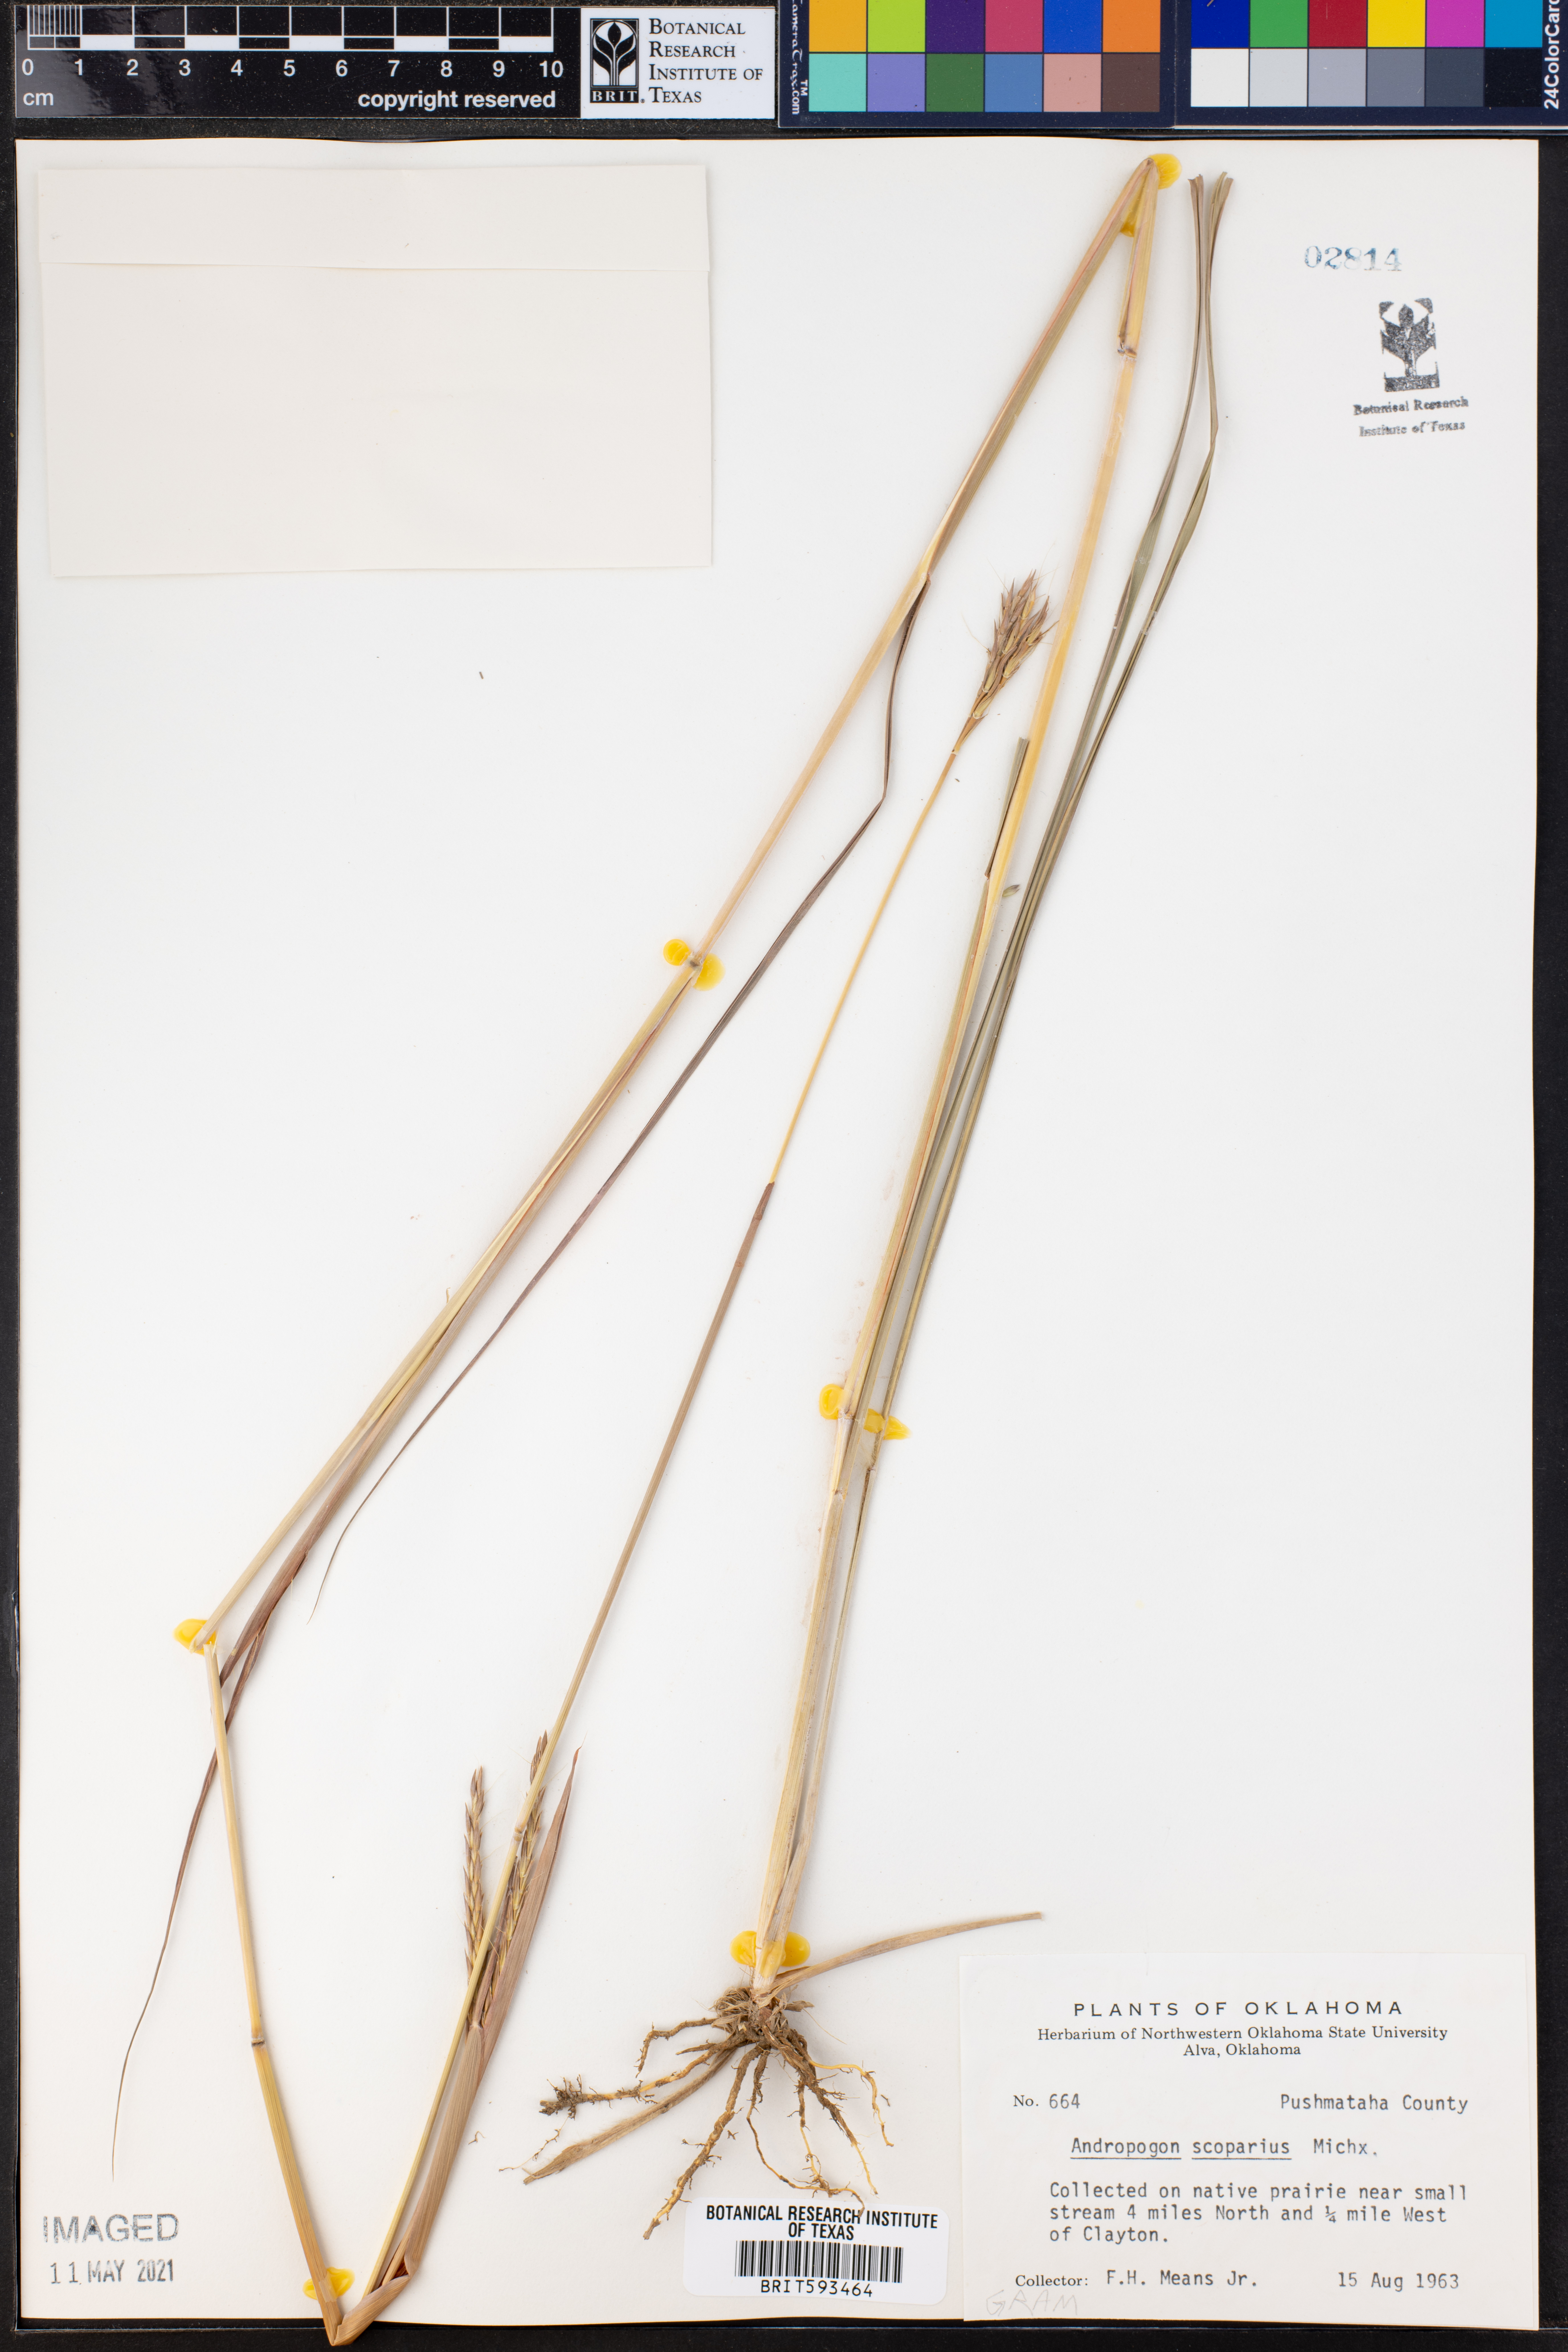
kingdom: Plantae
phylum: Tracheophyta
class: Liliopsida
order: Poales
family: Poaceae
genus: Schizachyrium
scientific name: Schizachyrium scoparium
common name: Little bluestem
